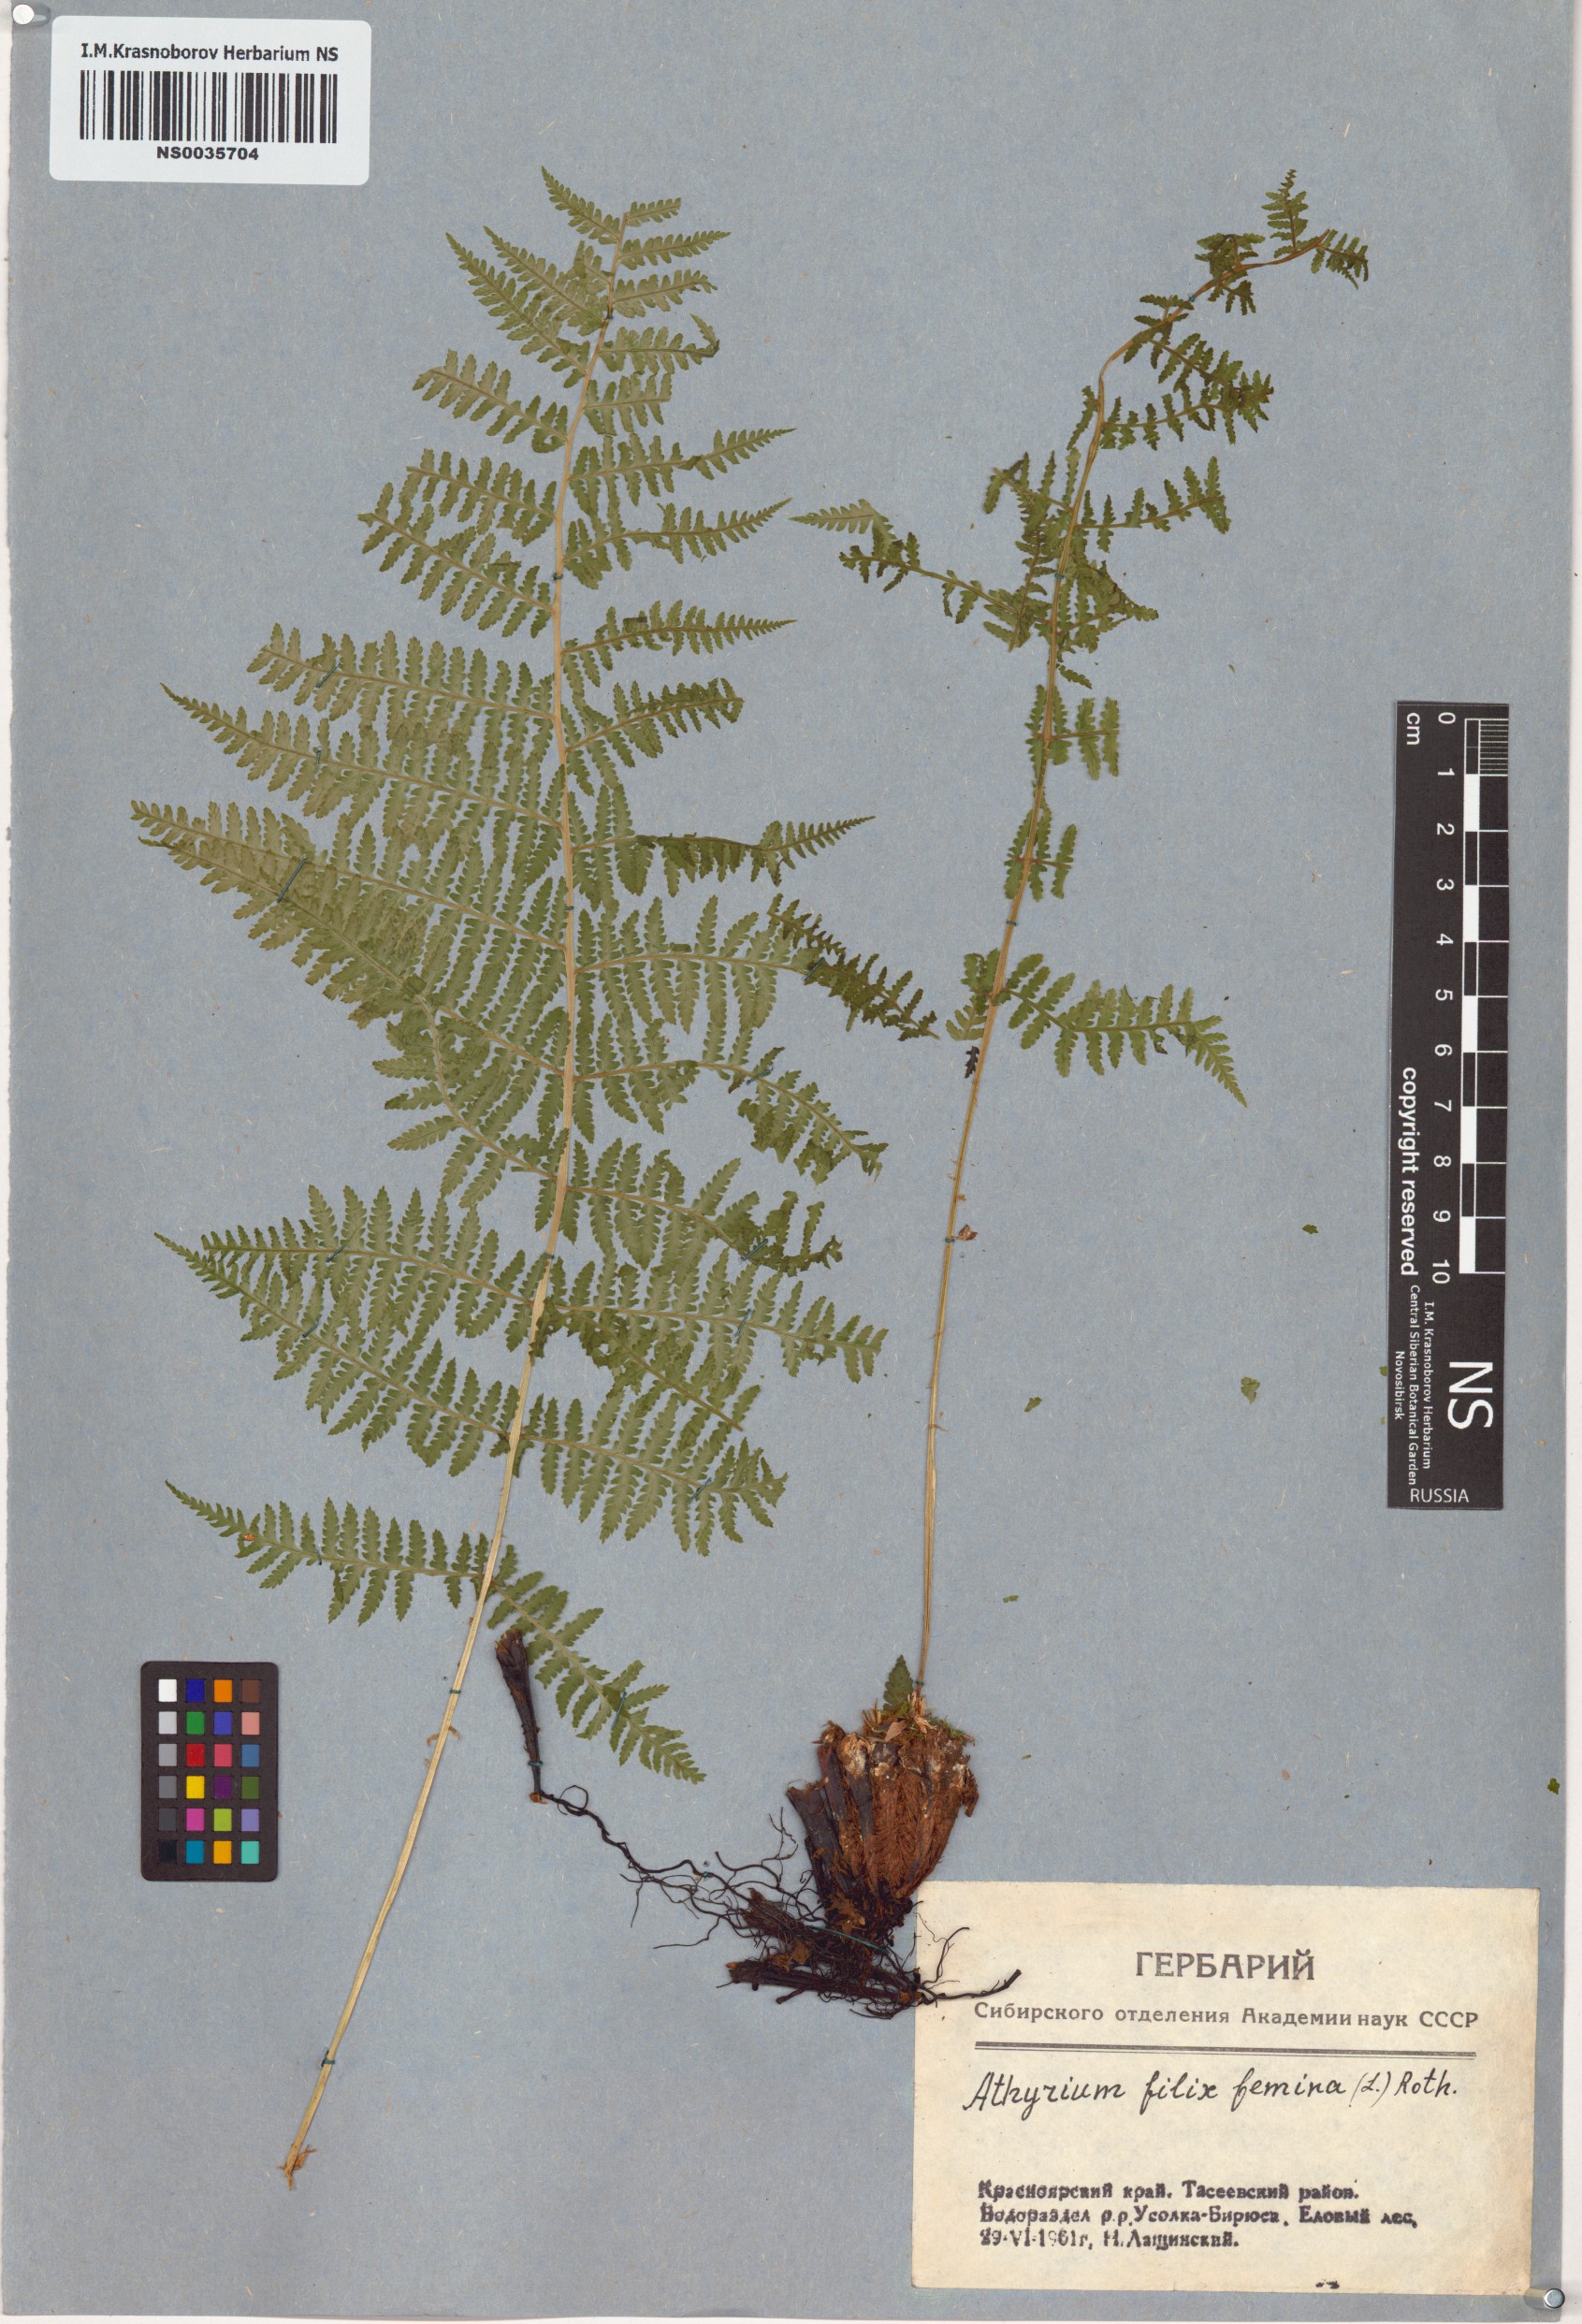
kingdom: Plantae
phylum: Tracheophyta
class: Polypodiopsida
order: Polypodiales
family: Athyriaceae
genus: Athyrium
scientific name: Athyrium filix-femina
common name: Lady fern
